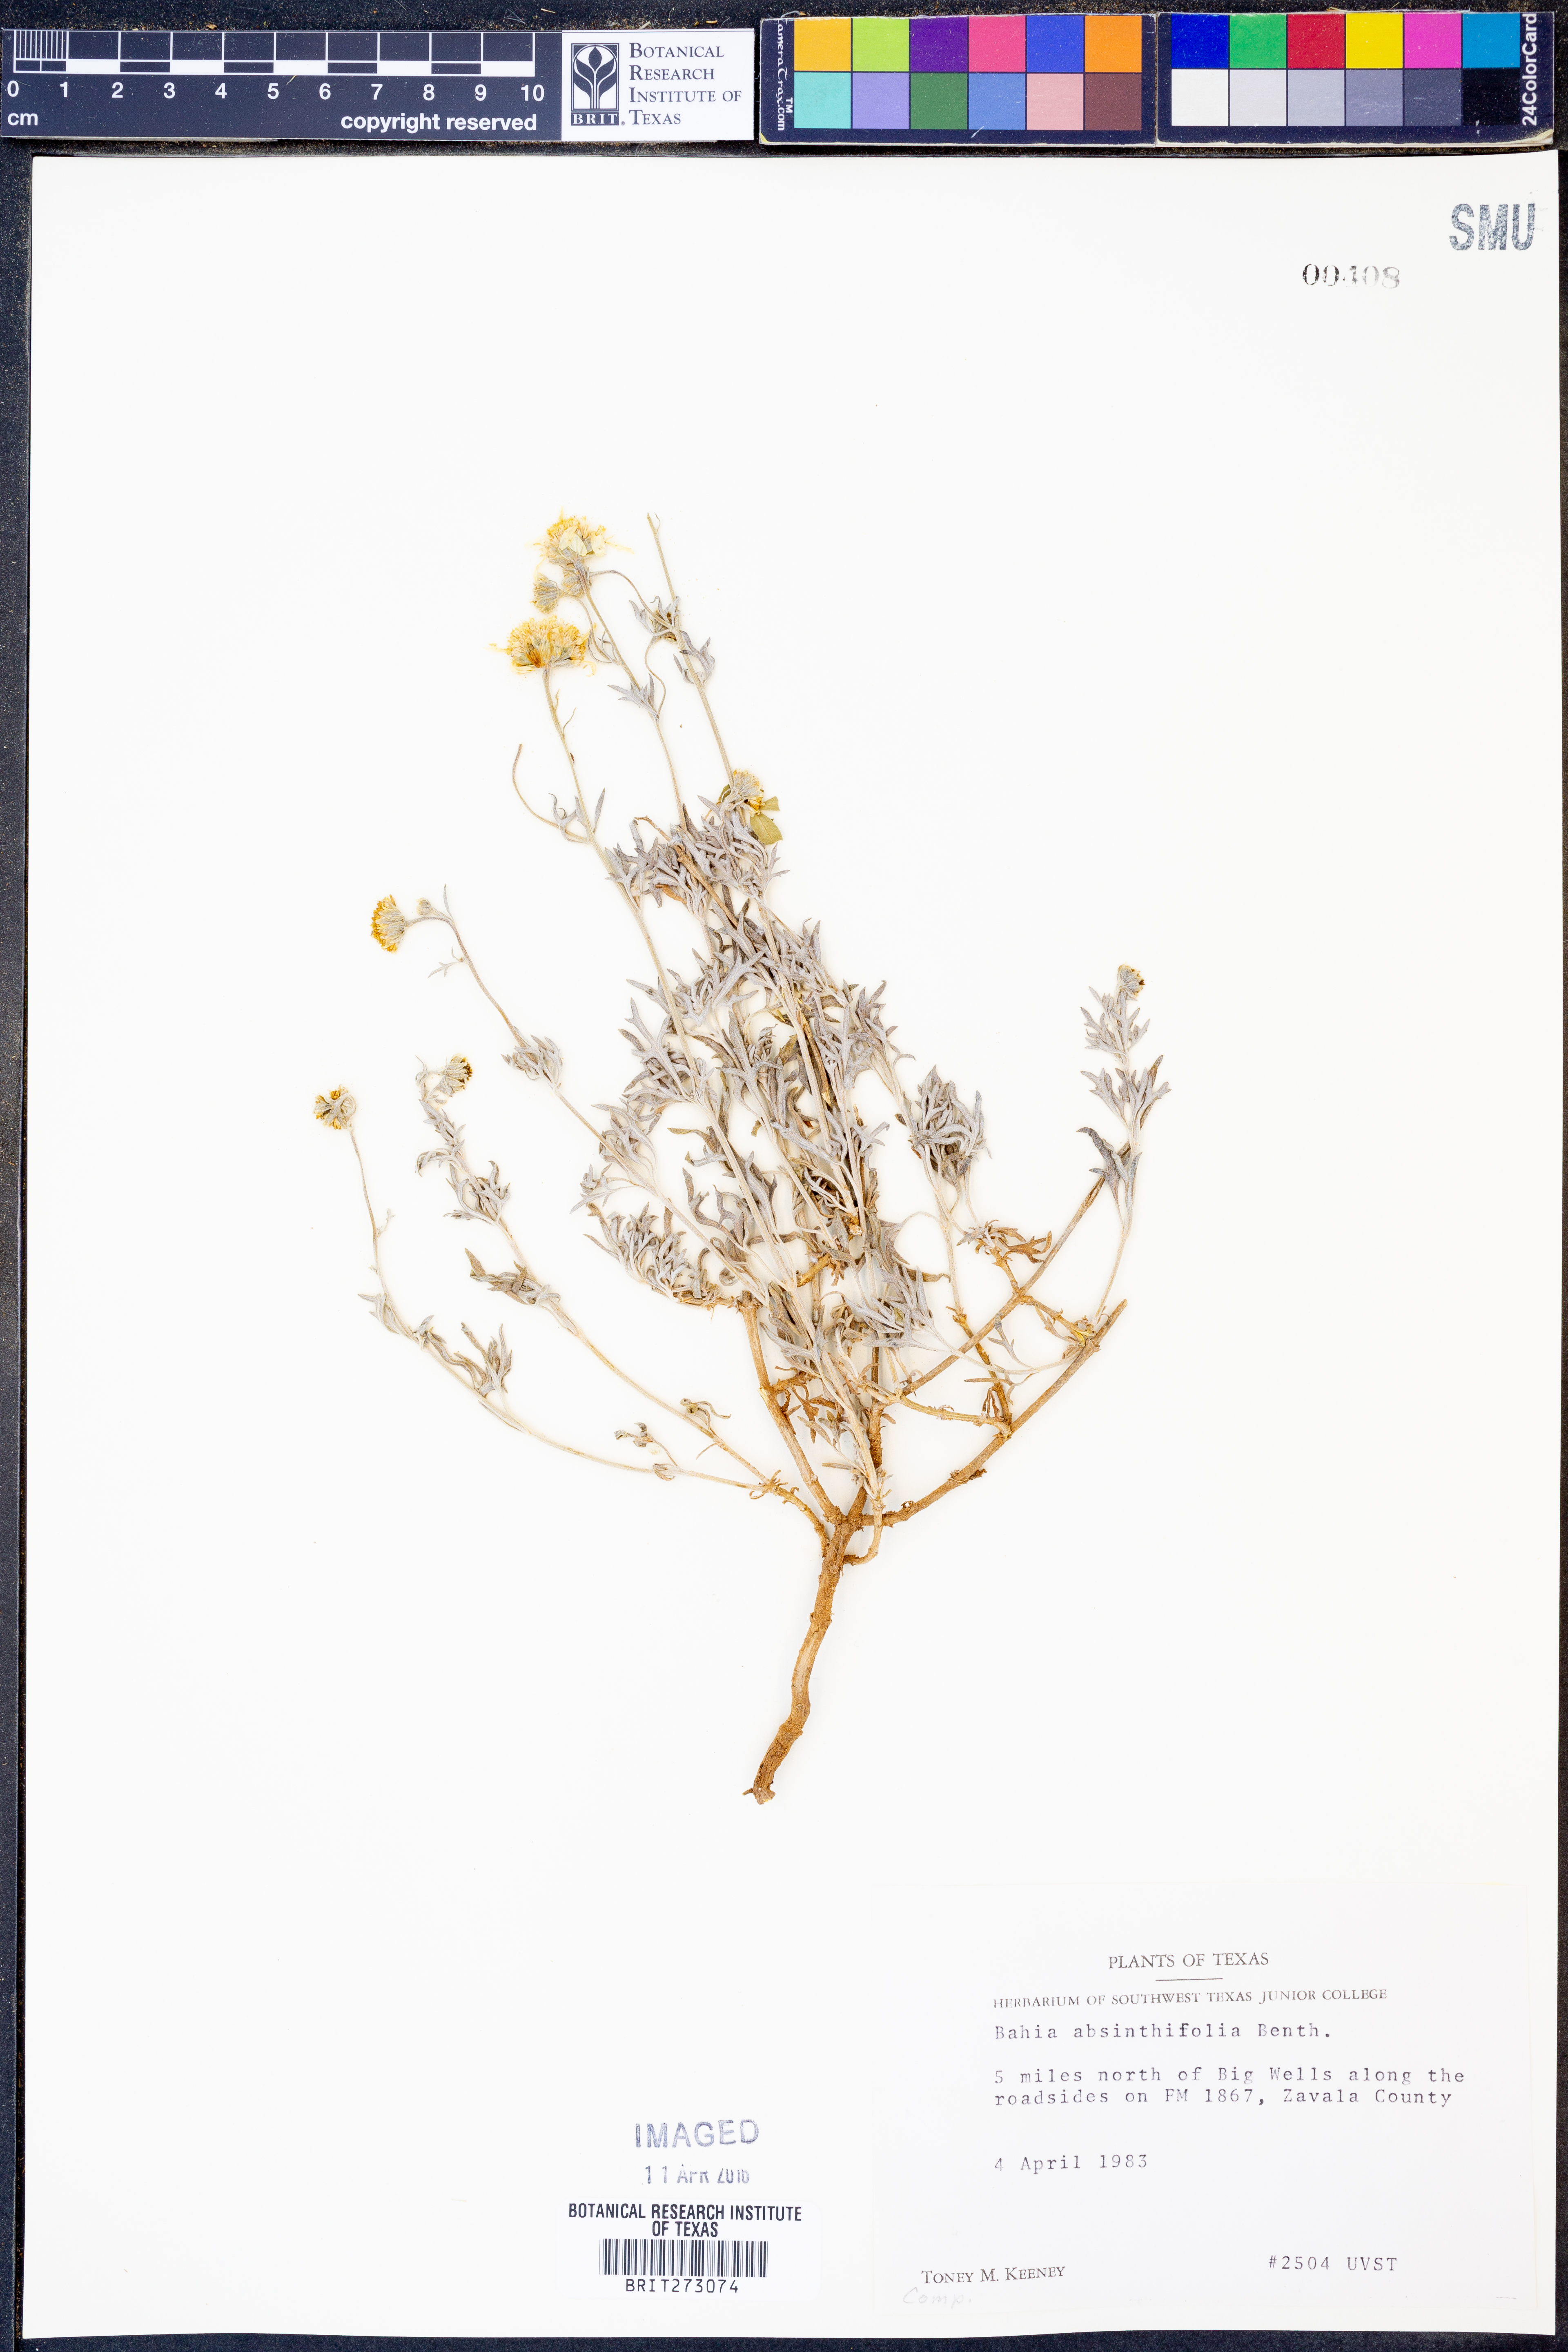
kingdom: Plantae
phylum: Tracheophyta
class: Magnoliopsida
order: Asterales
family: Asteraceae
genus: Picradeniopsis
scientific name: Picradeniopsis absinthifolia
